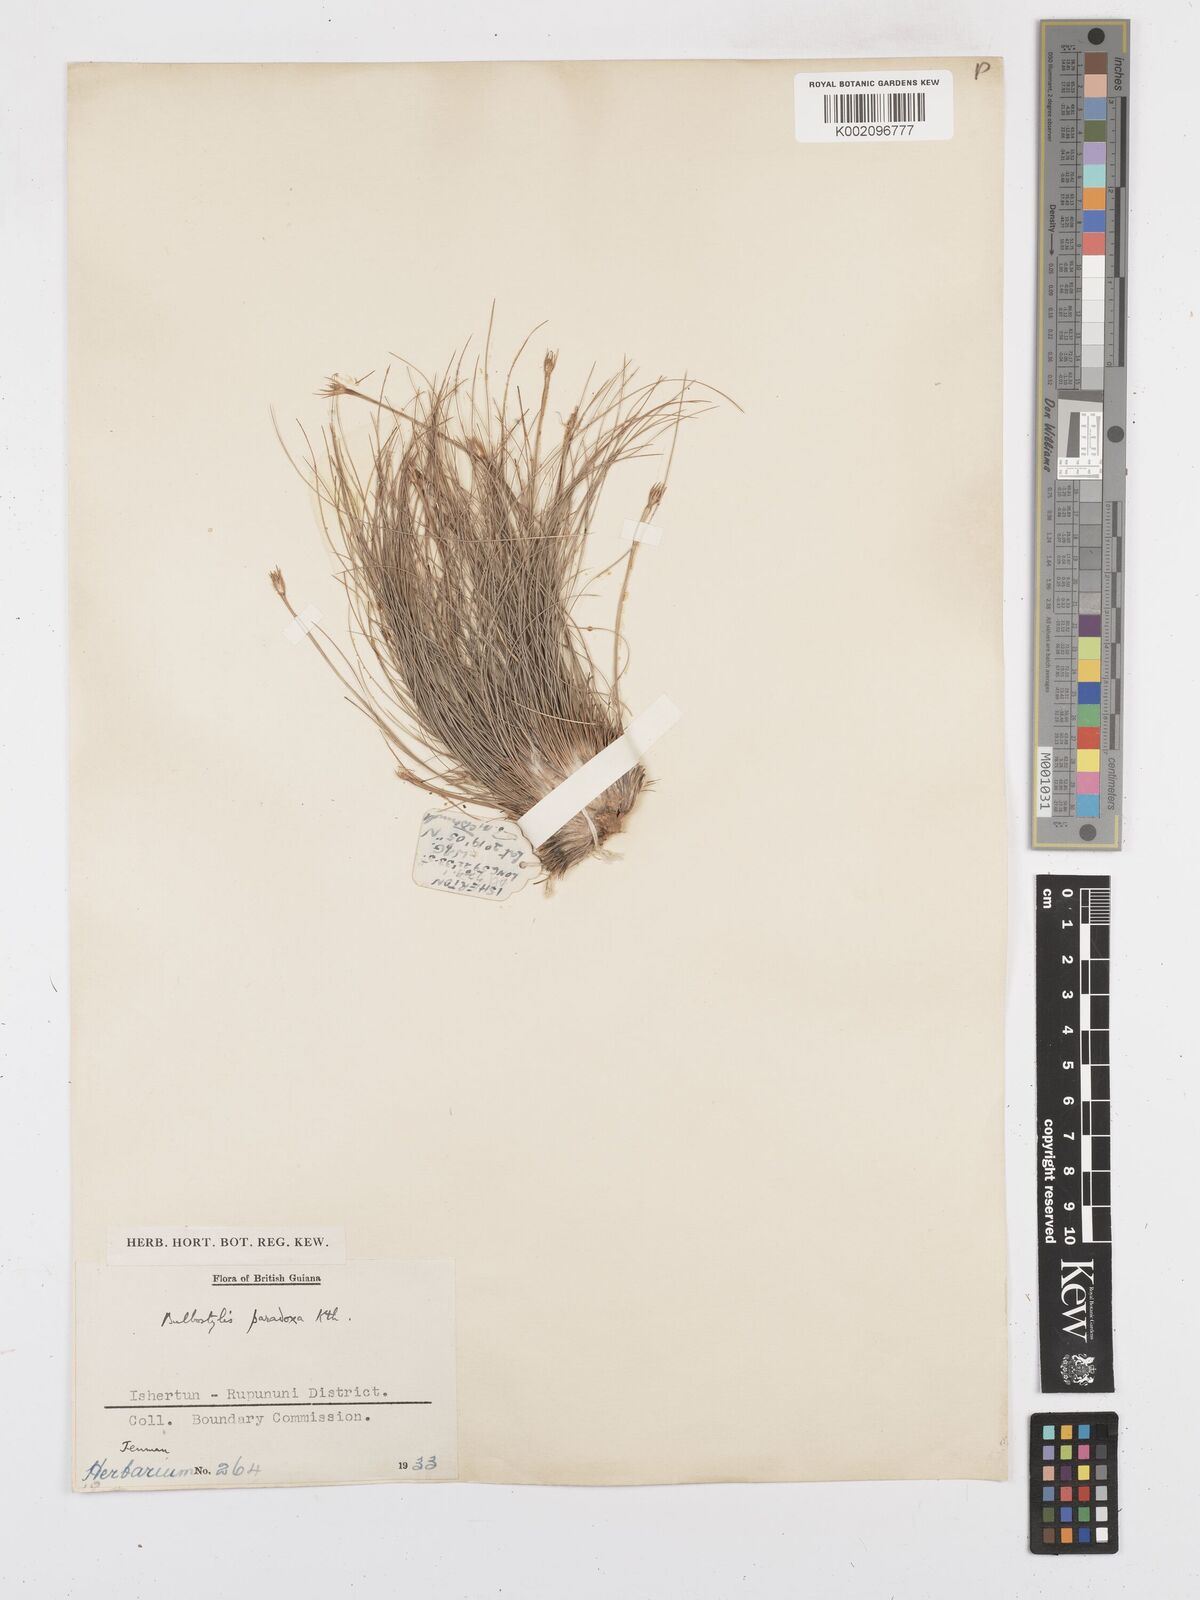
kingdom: Plantae
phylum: Tracheophyta
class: Liliopsida
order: Poales
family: Cyperaceae
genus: Bulbostylis
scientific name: Bulbostylis paradoxa
